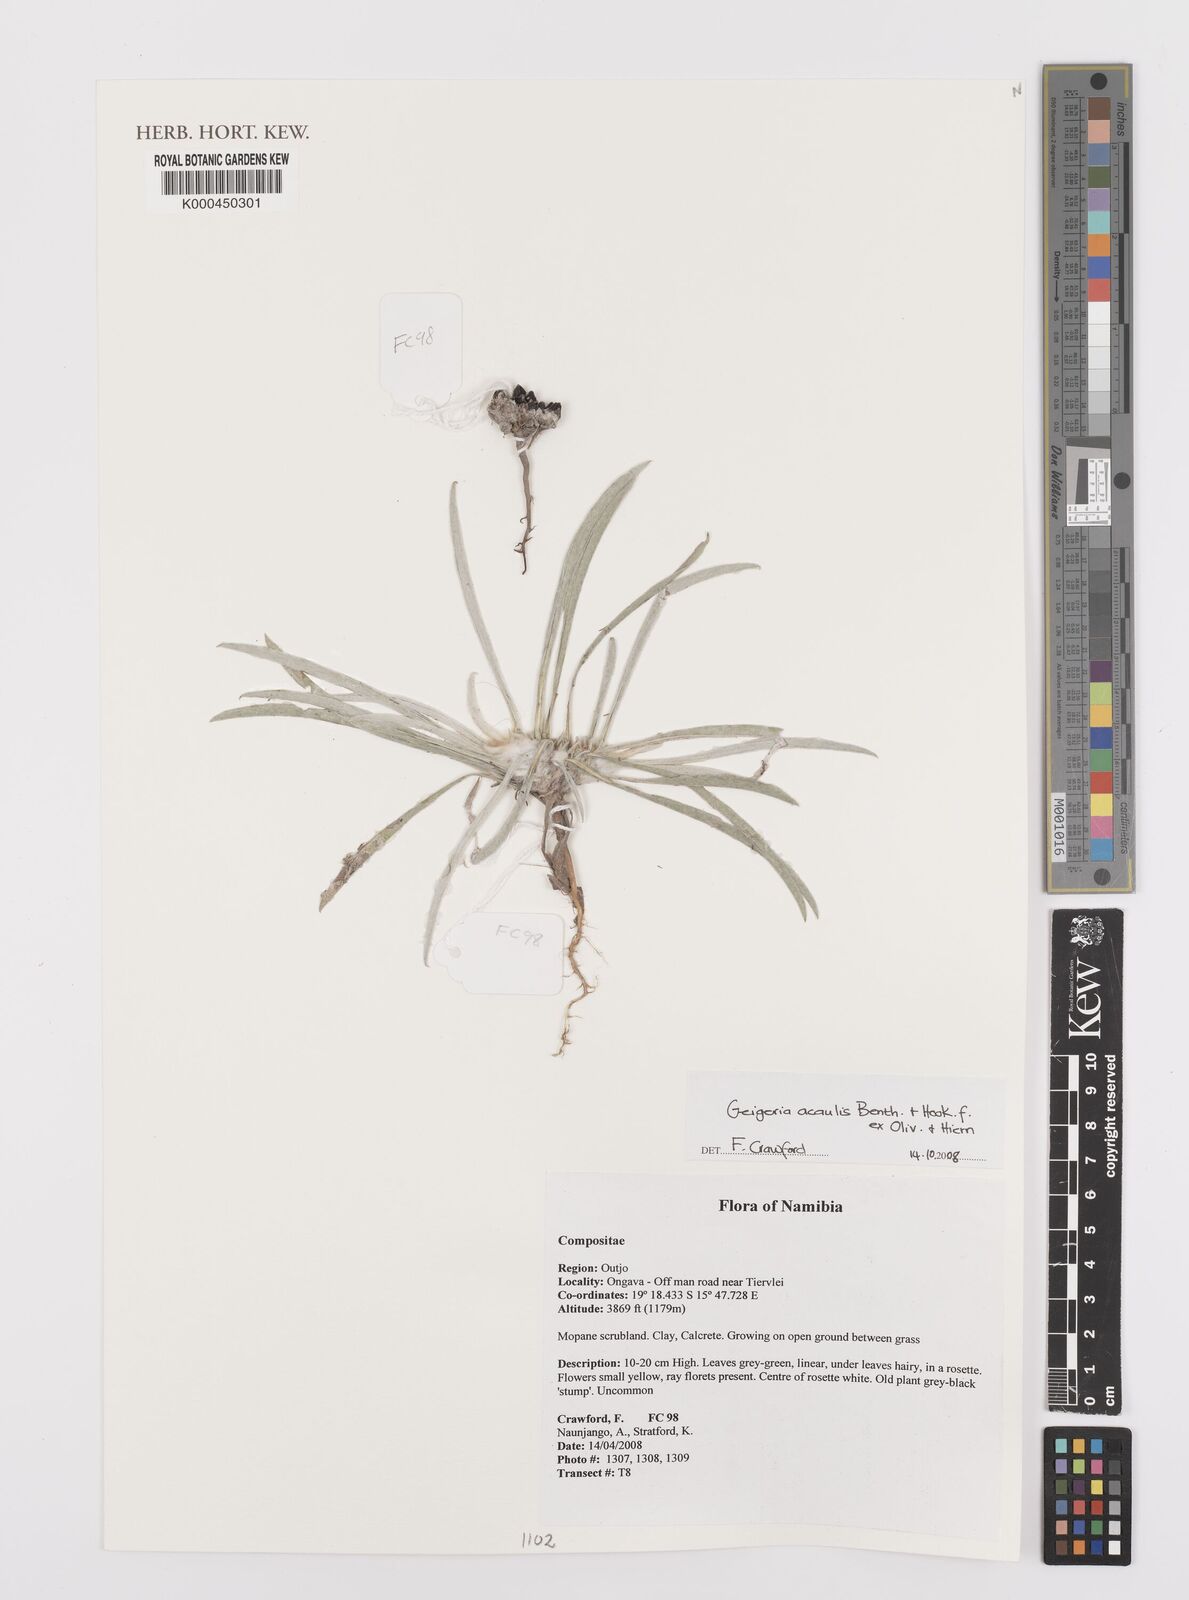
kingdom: Plantae
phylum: Tracheophyta
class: Magnoliopsida
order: Asterales
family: Asteraceae
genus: Geigeria
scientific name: Geigeria acaulis
